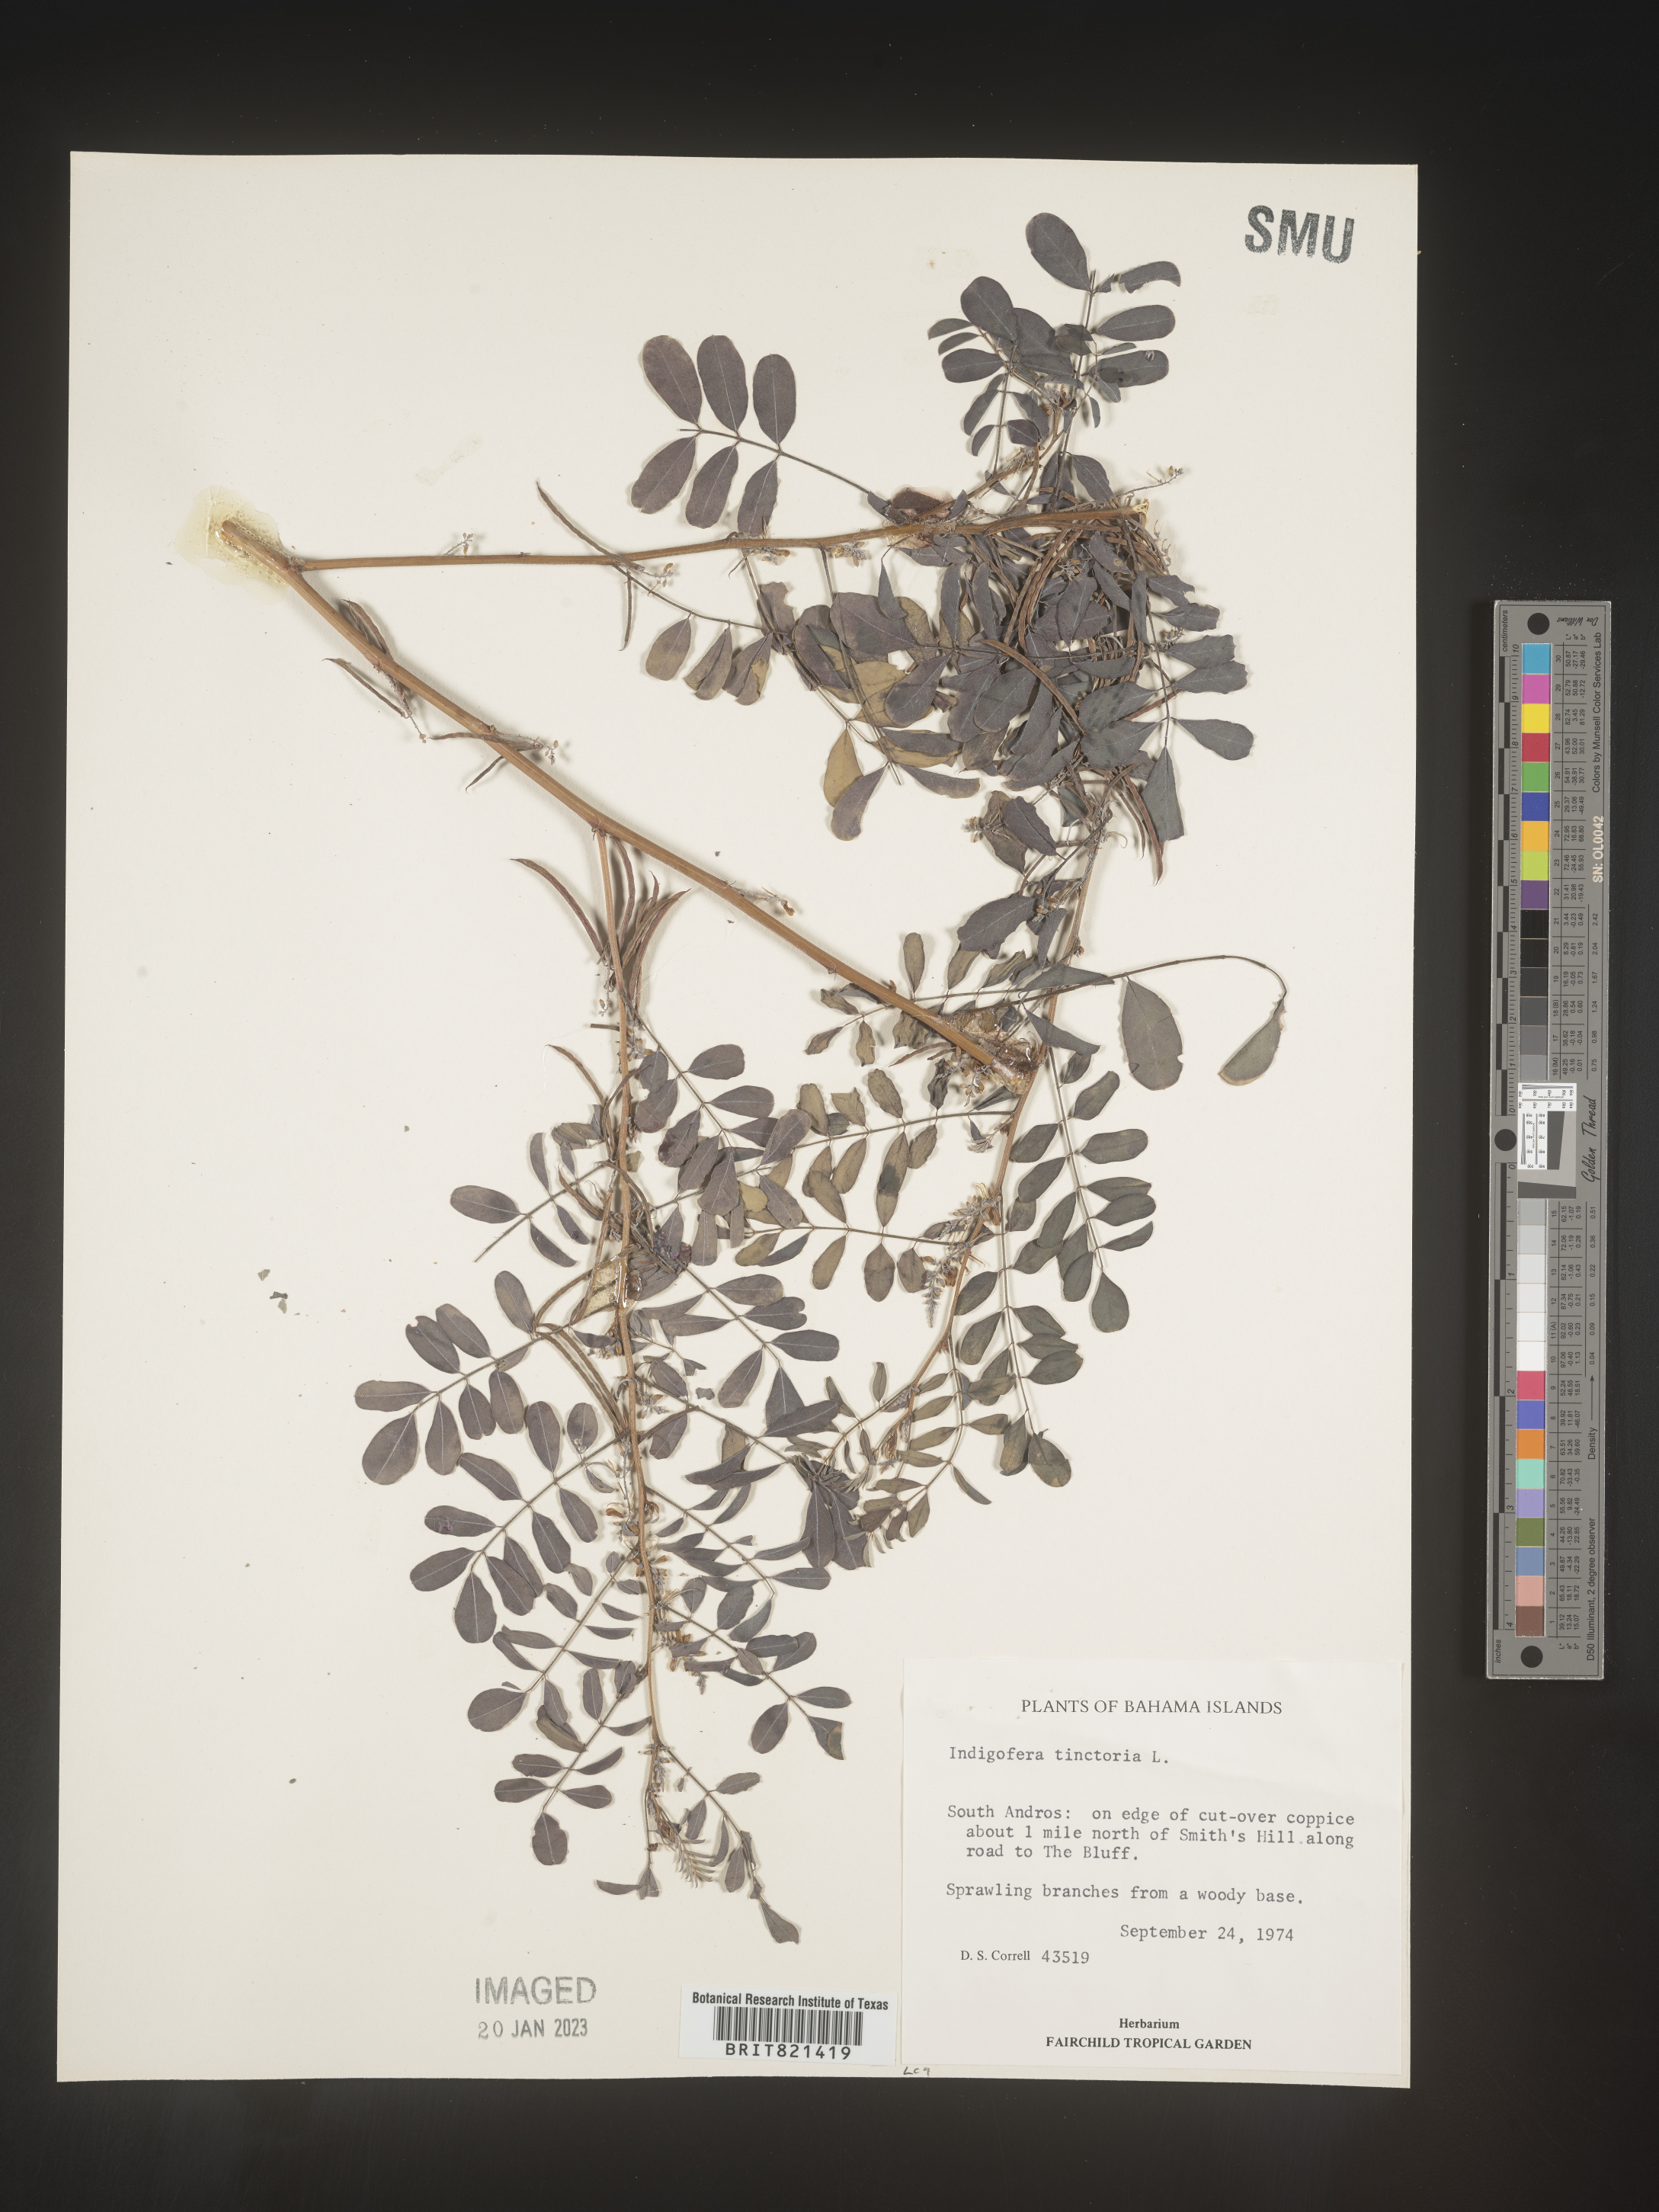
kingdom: Plantae
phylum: Tracheophyta
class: Magnoliopsida
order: Fabales
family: Fabaceae
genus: Indigofera
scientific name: Indigofera
